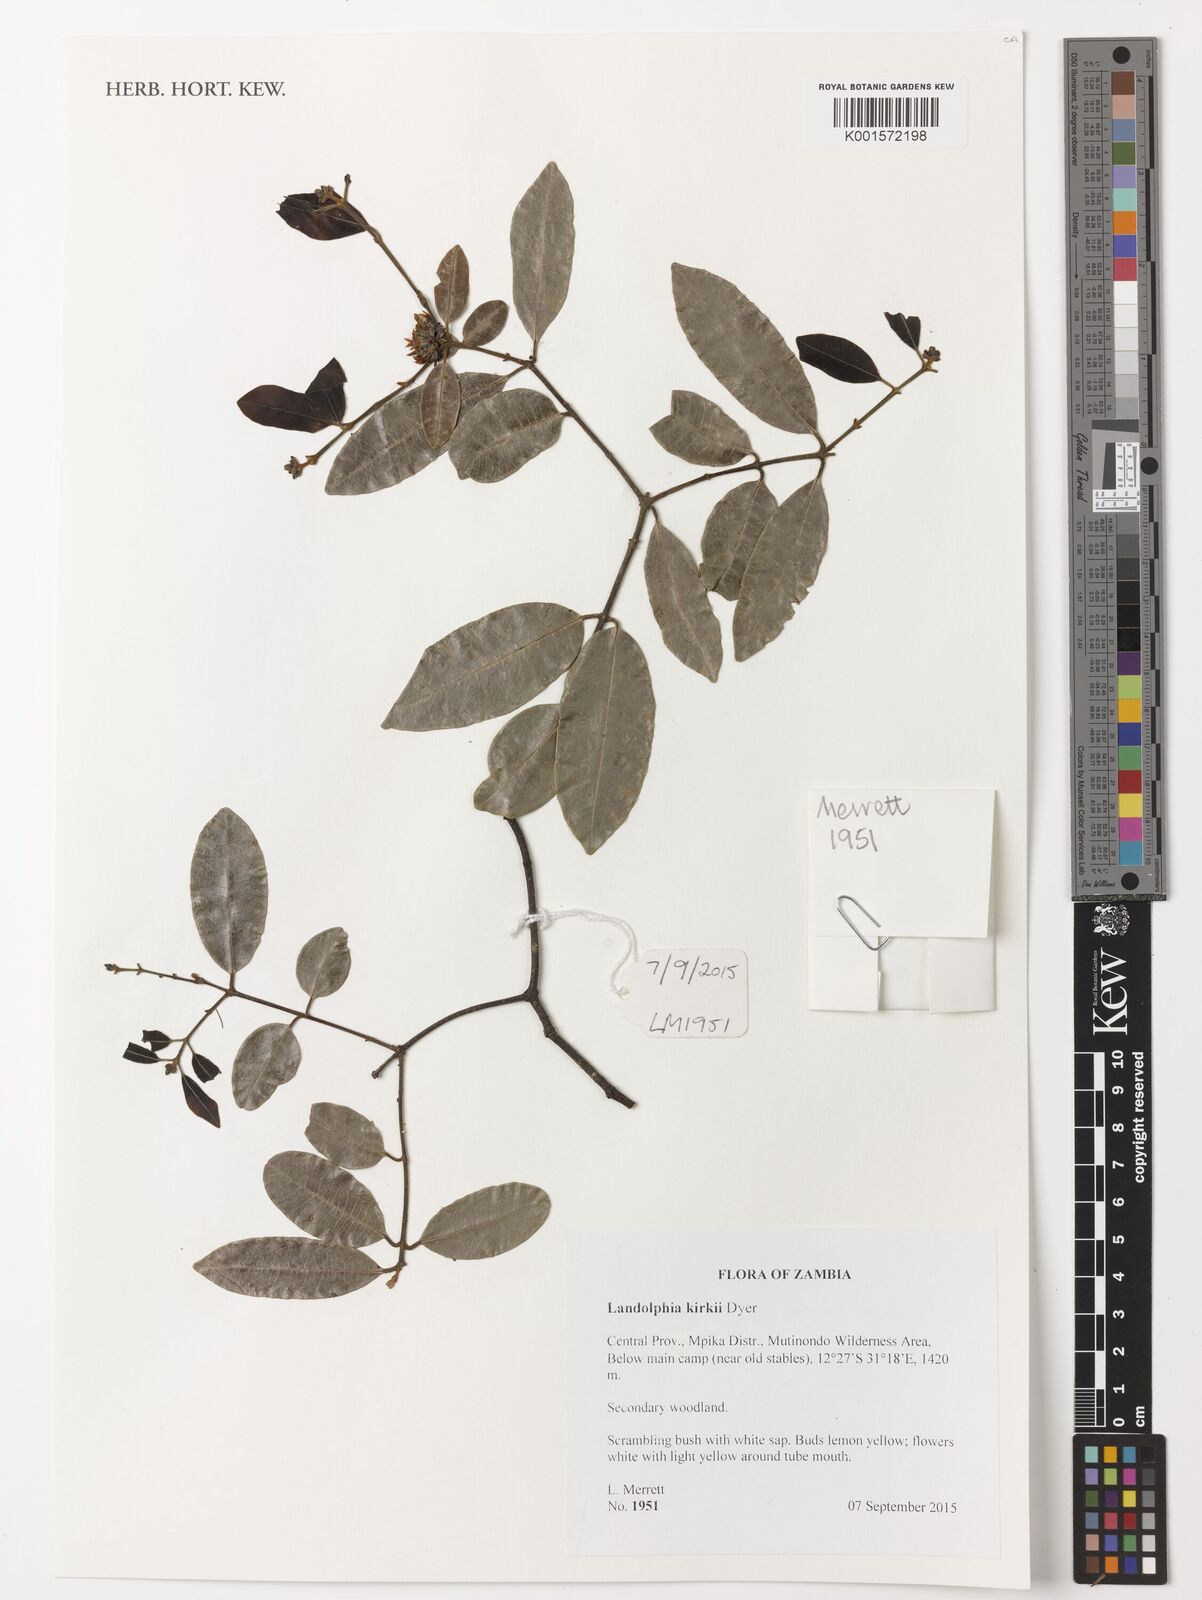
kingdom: Plantae
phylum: Tracheophyta
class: Magnoliopsida
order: Gentianales
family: Apocynaceae
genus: Landolphia
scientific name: Landolphia kirkii
